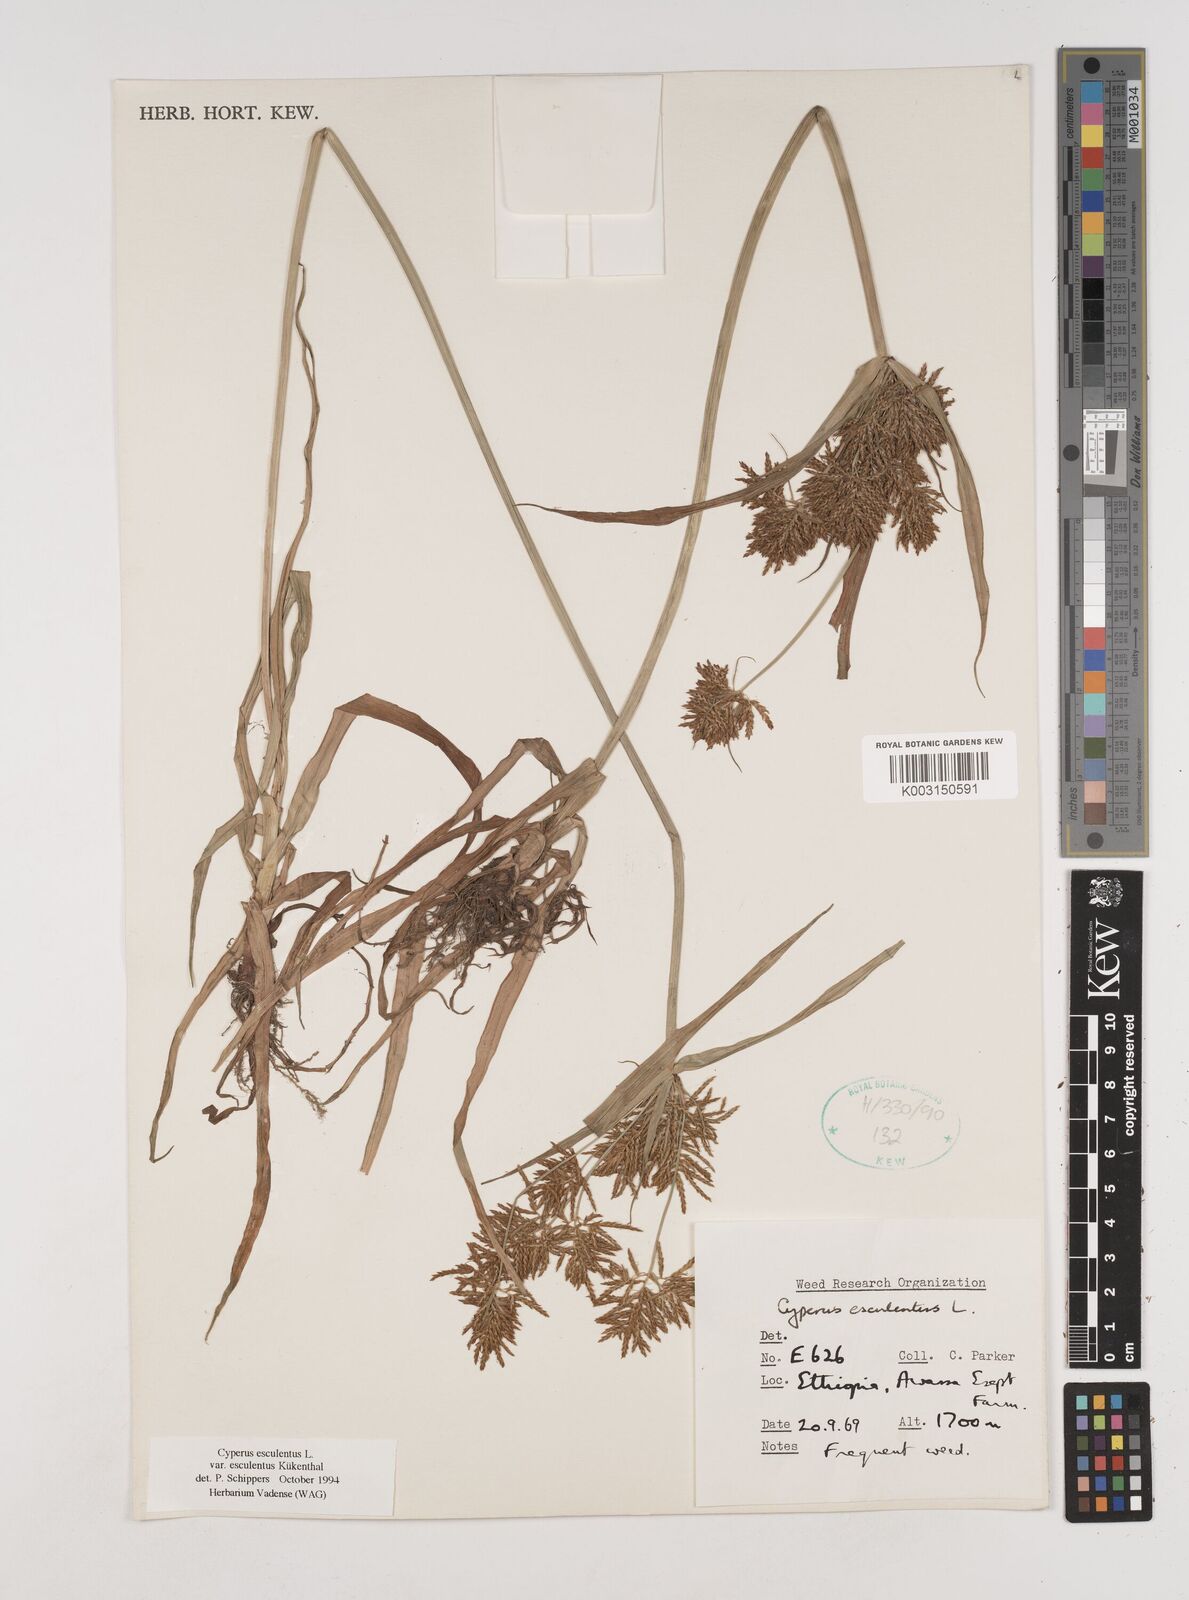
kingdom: Plantae
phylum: Tracheophyta
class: Liliopsida
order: Poales
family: Cyperaceae
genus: Cyperus
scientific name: Cyperus esculentus
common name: Yellow nutsedge
